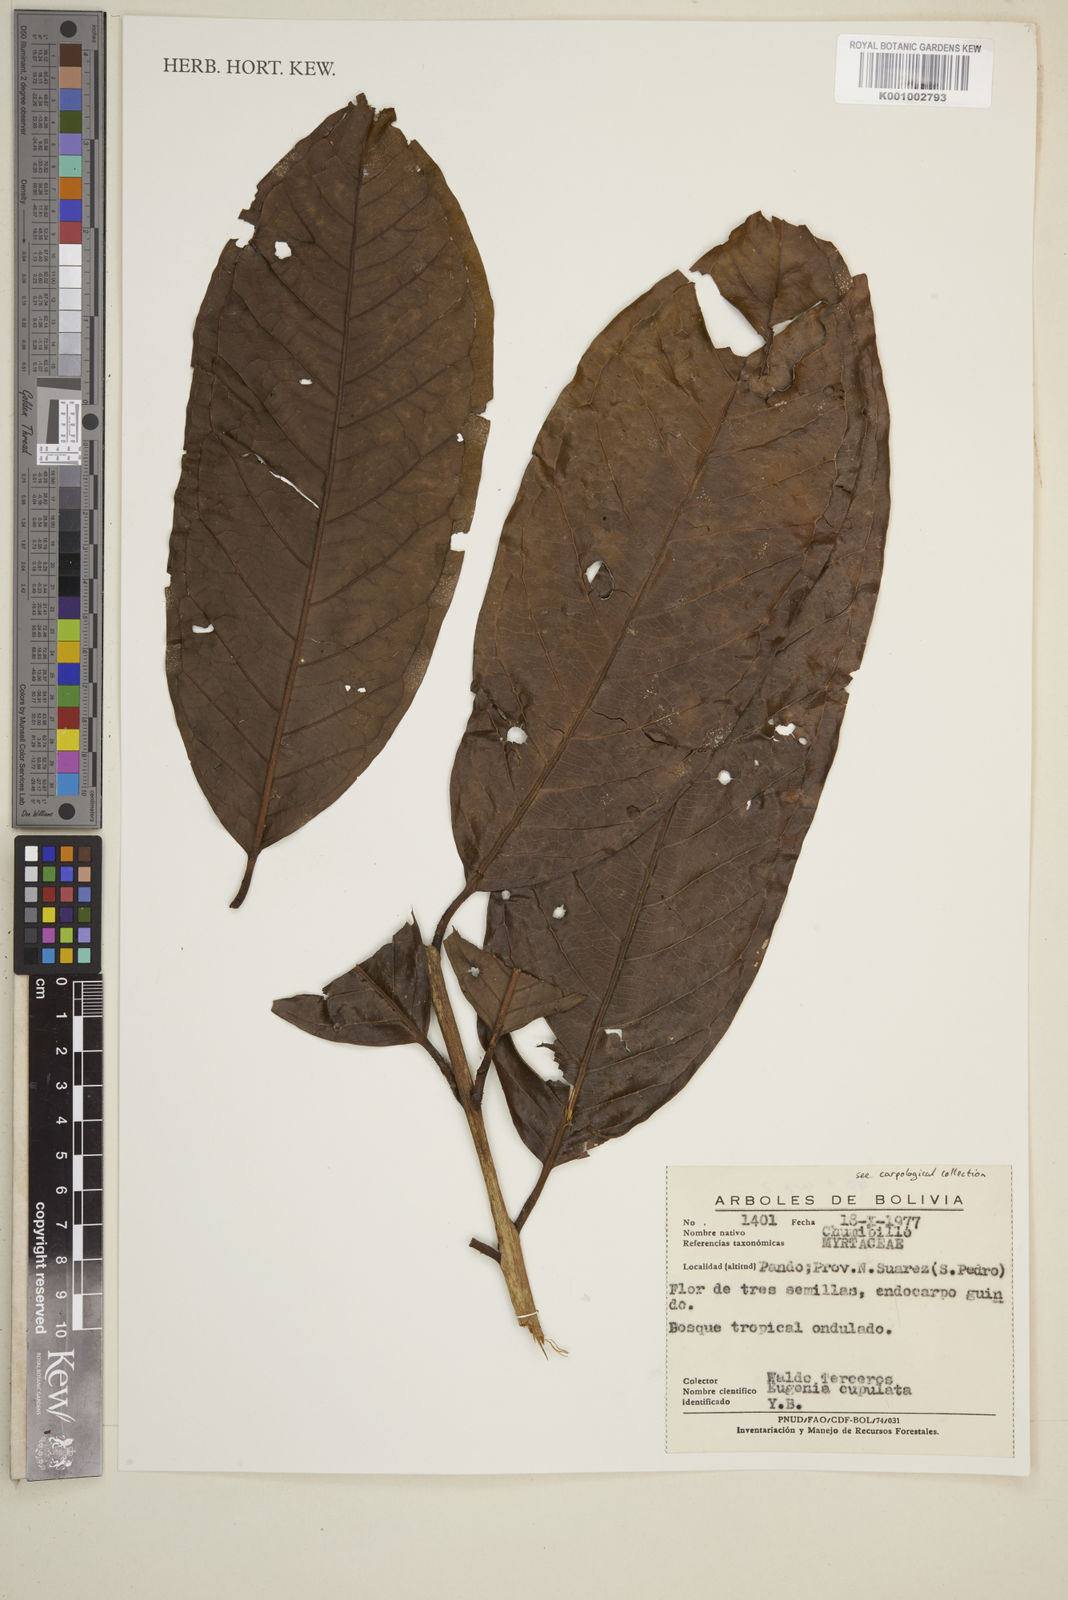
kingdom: Plantae
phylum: Tracheophyta
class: Magnoliopsida
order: Myrtales
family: Myrtaceae
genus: Eugenia
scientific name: Eugenia cupulata
